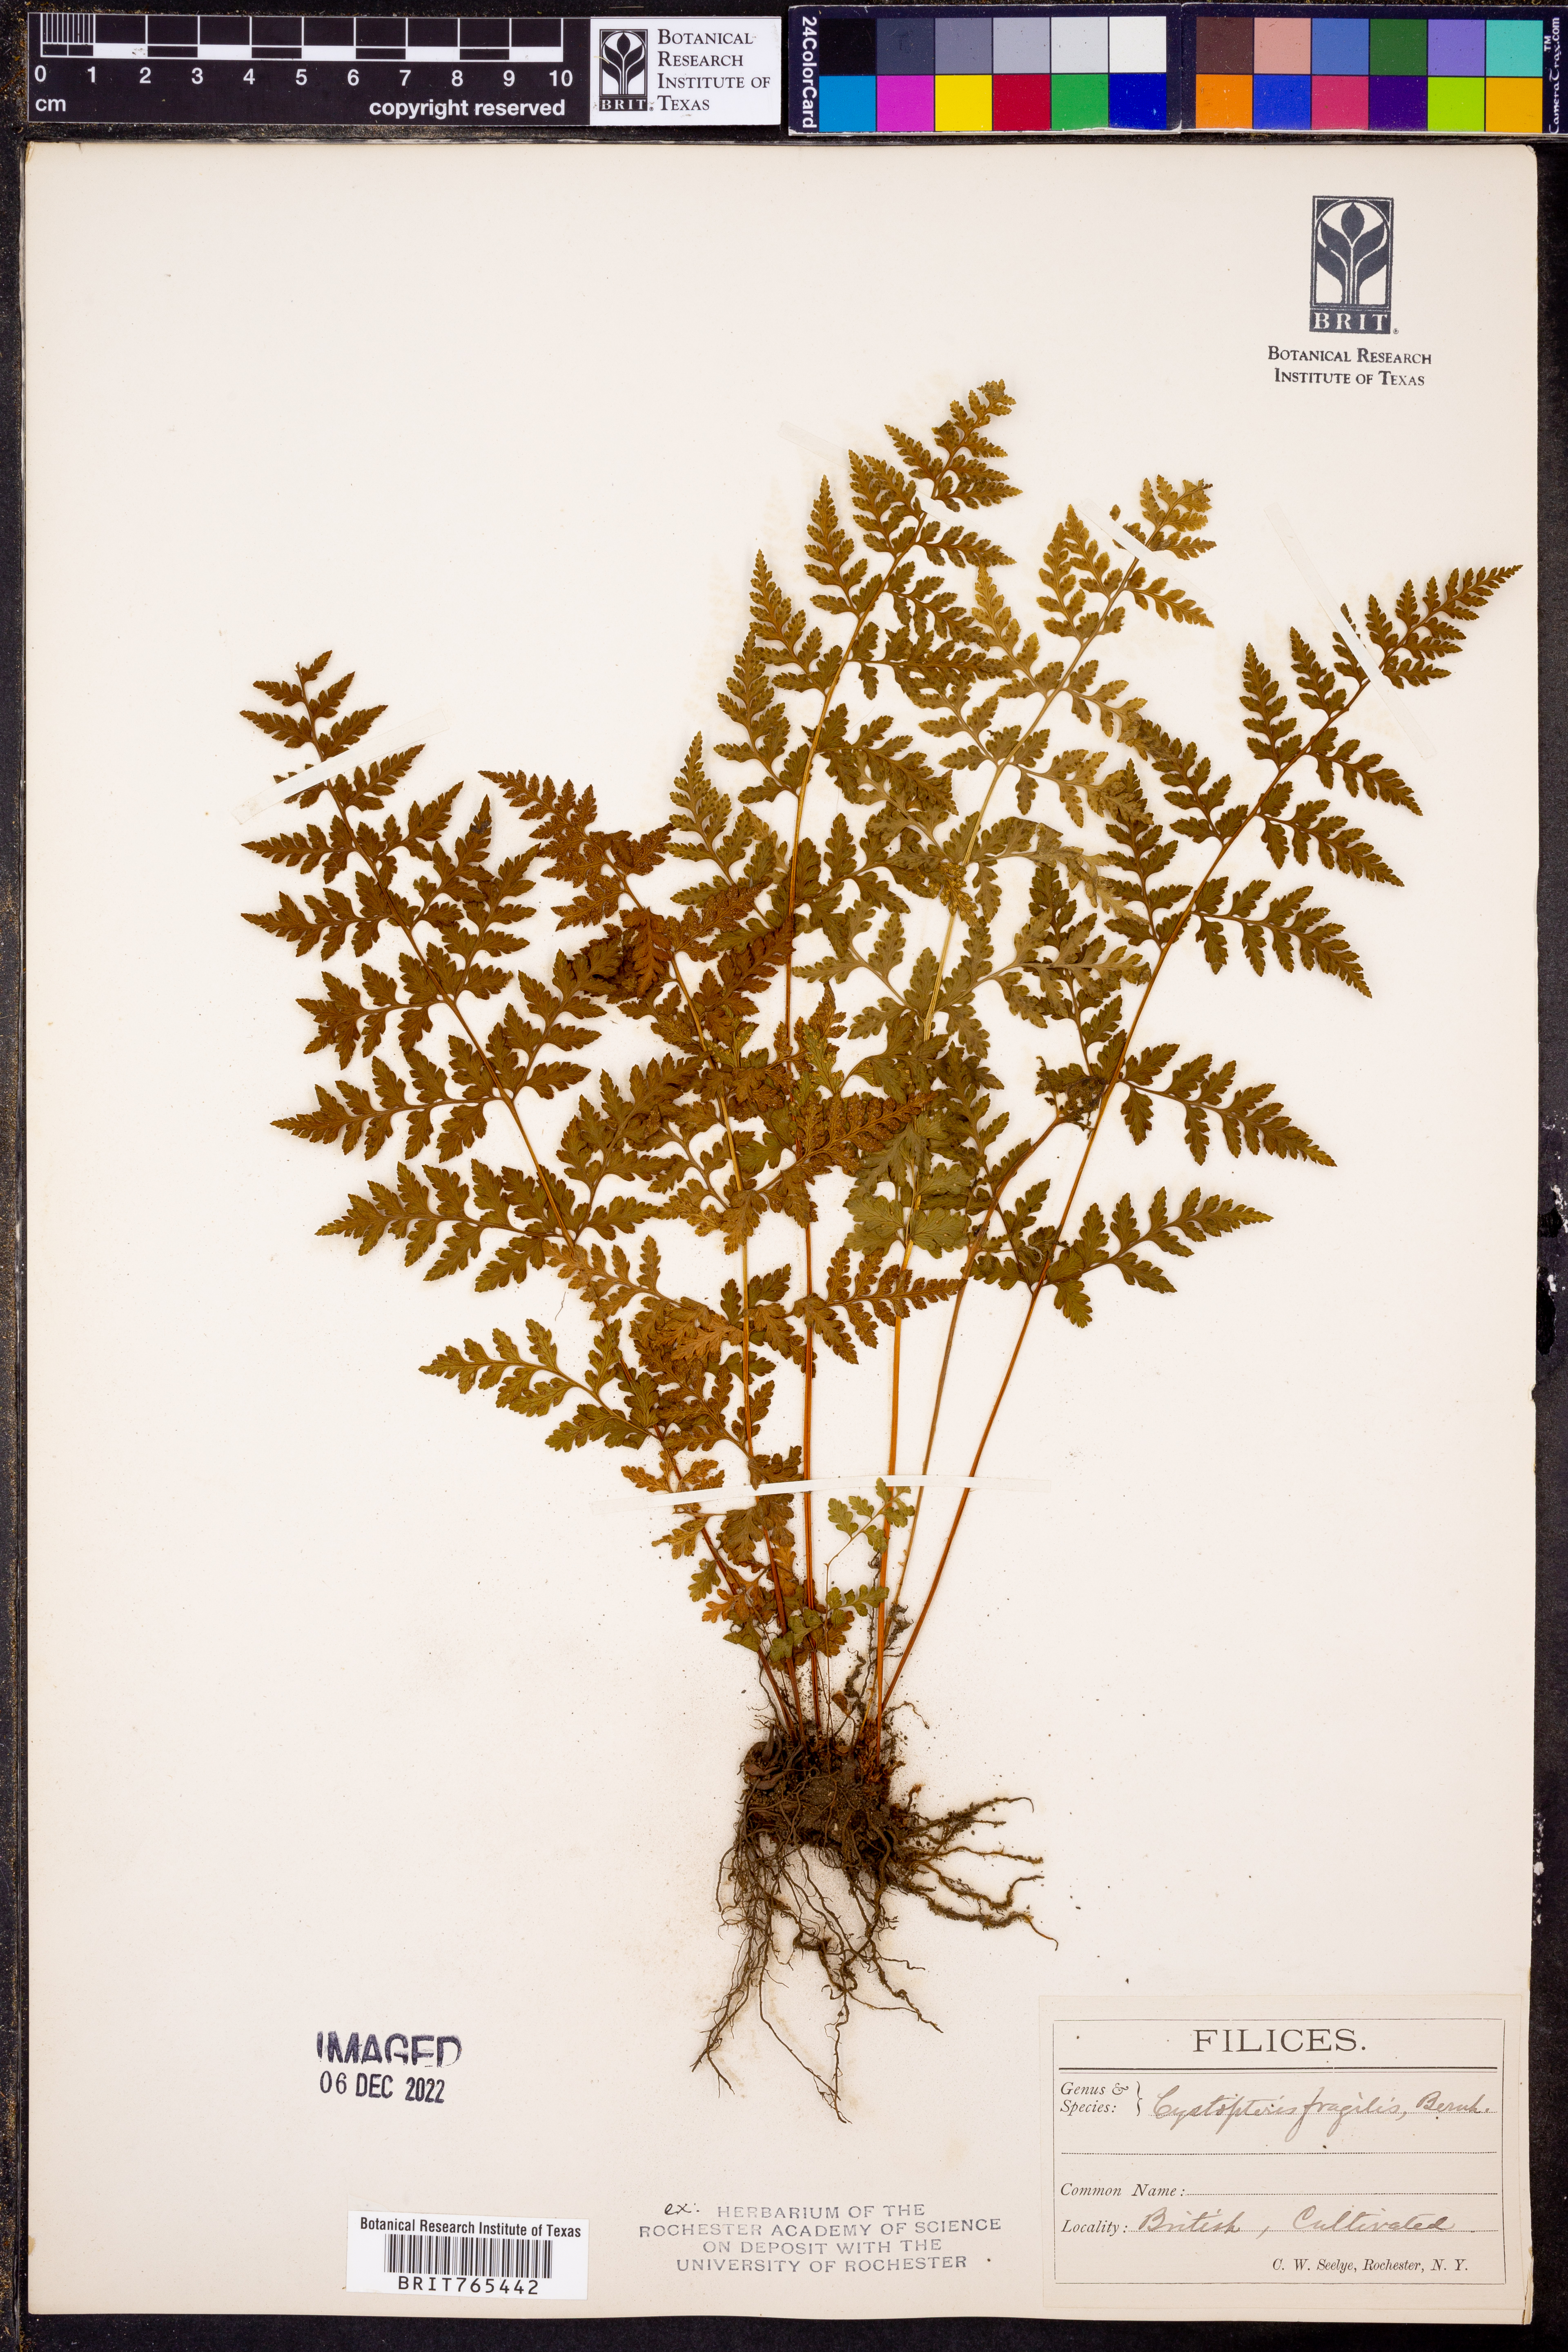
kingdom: Plantae
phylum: Tracheophyta
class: Polypodiopsida
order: Polypodiales
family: Cystopteridaceae
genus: Cystopteris
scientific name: Cystopteris fragilis
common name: Brittle bladder fern
